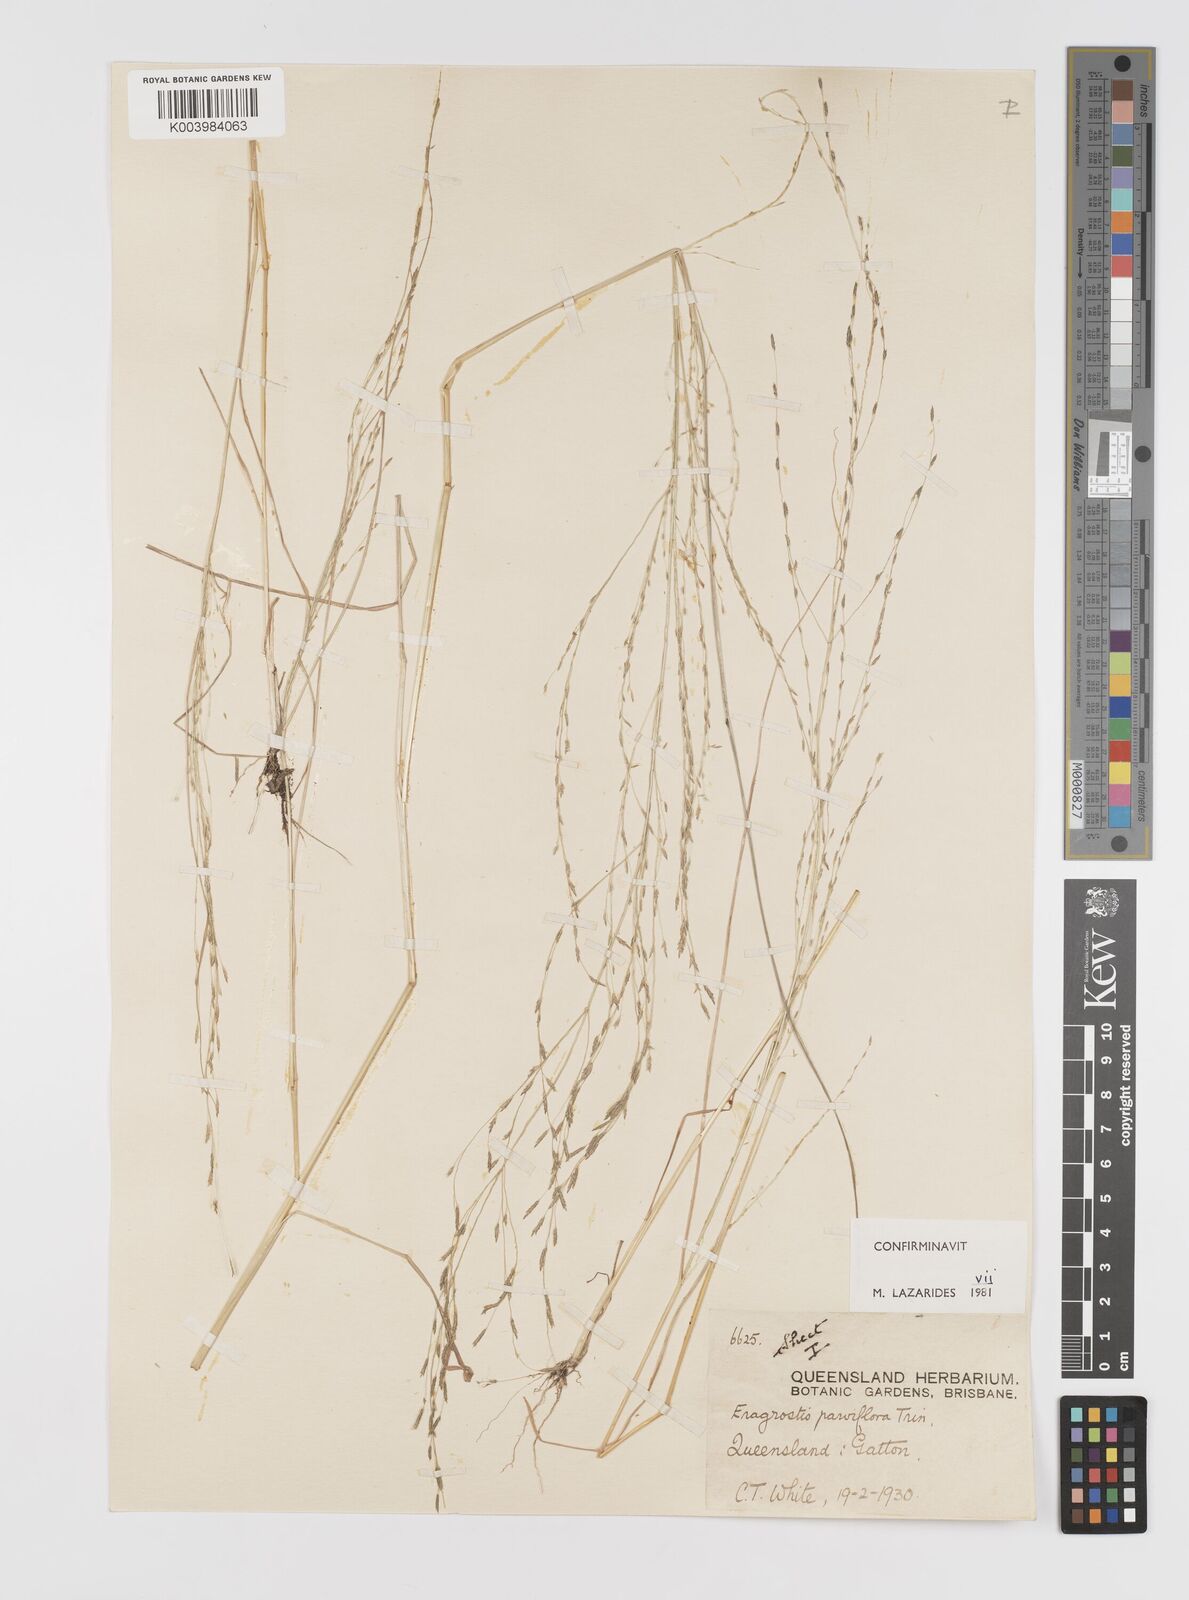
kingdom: Plantae
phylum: Tracheophyta
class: Liliopsida
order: Poales
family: Poaceae
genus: Eragrostis
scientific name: Eragrostis parviflora
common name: Weeping love-grass
